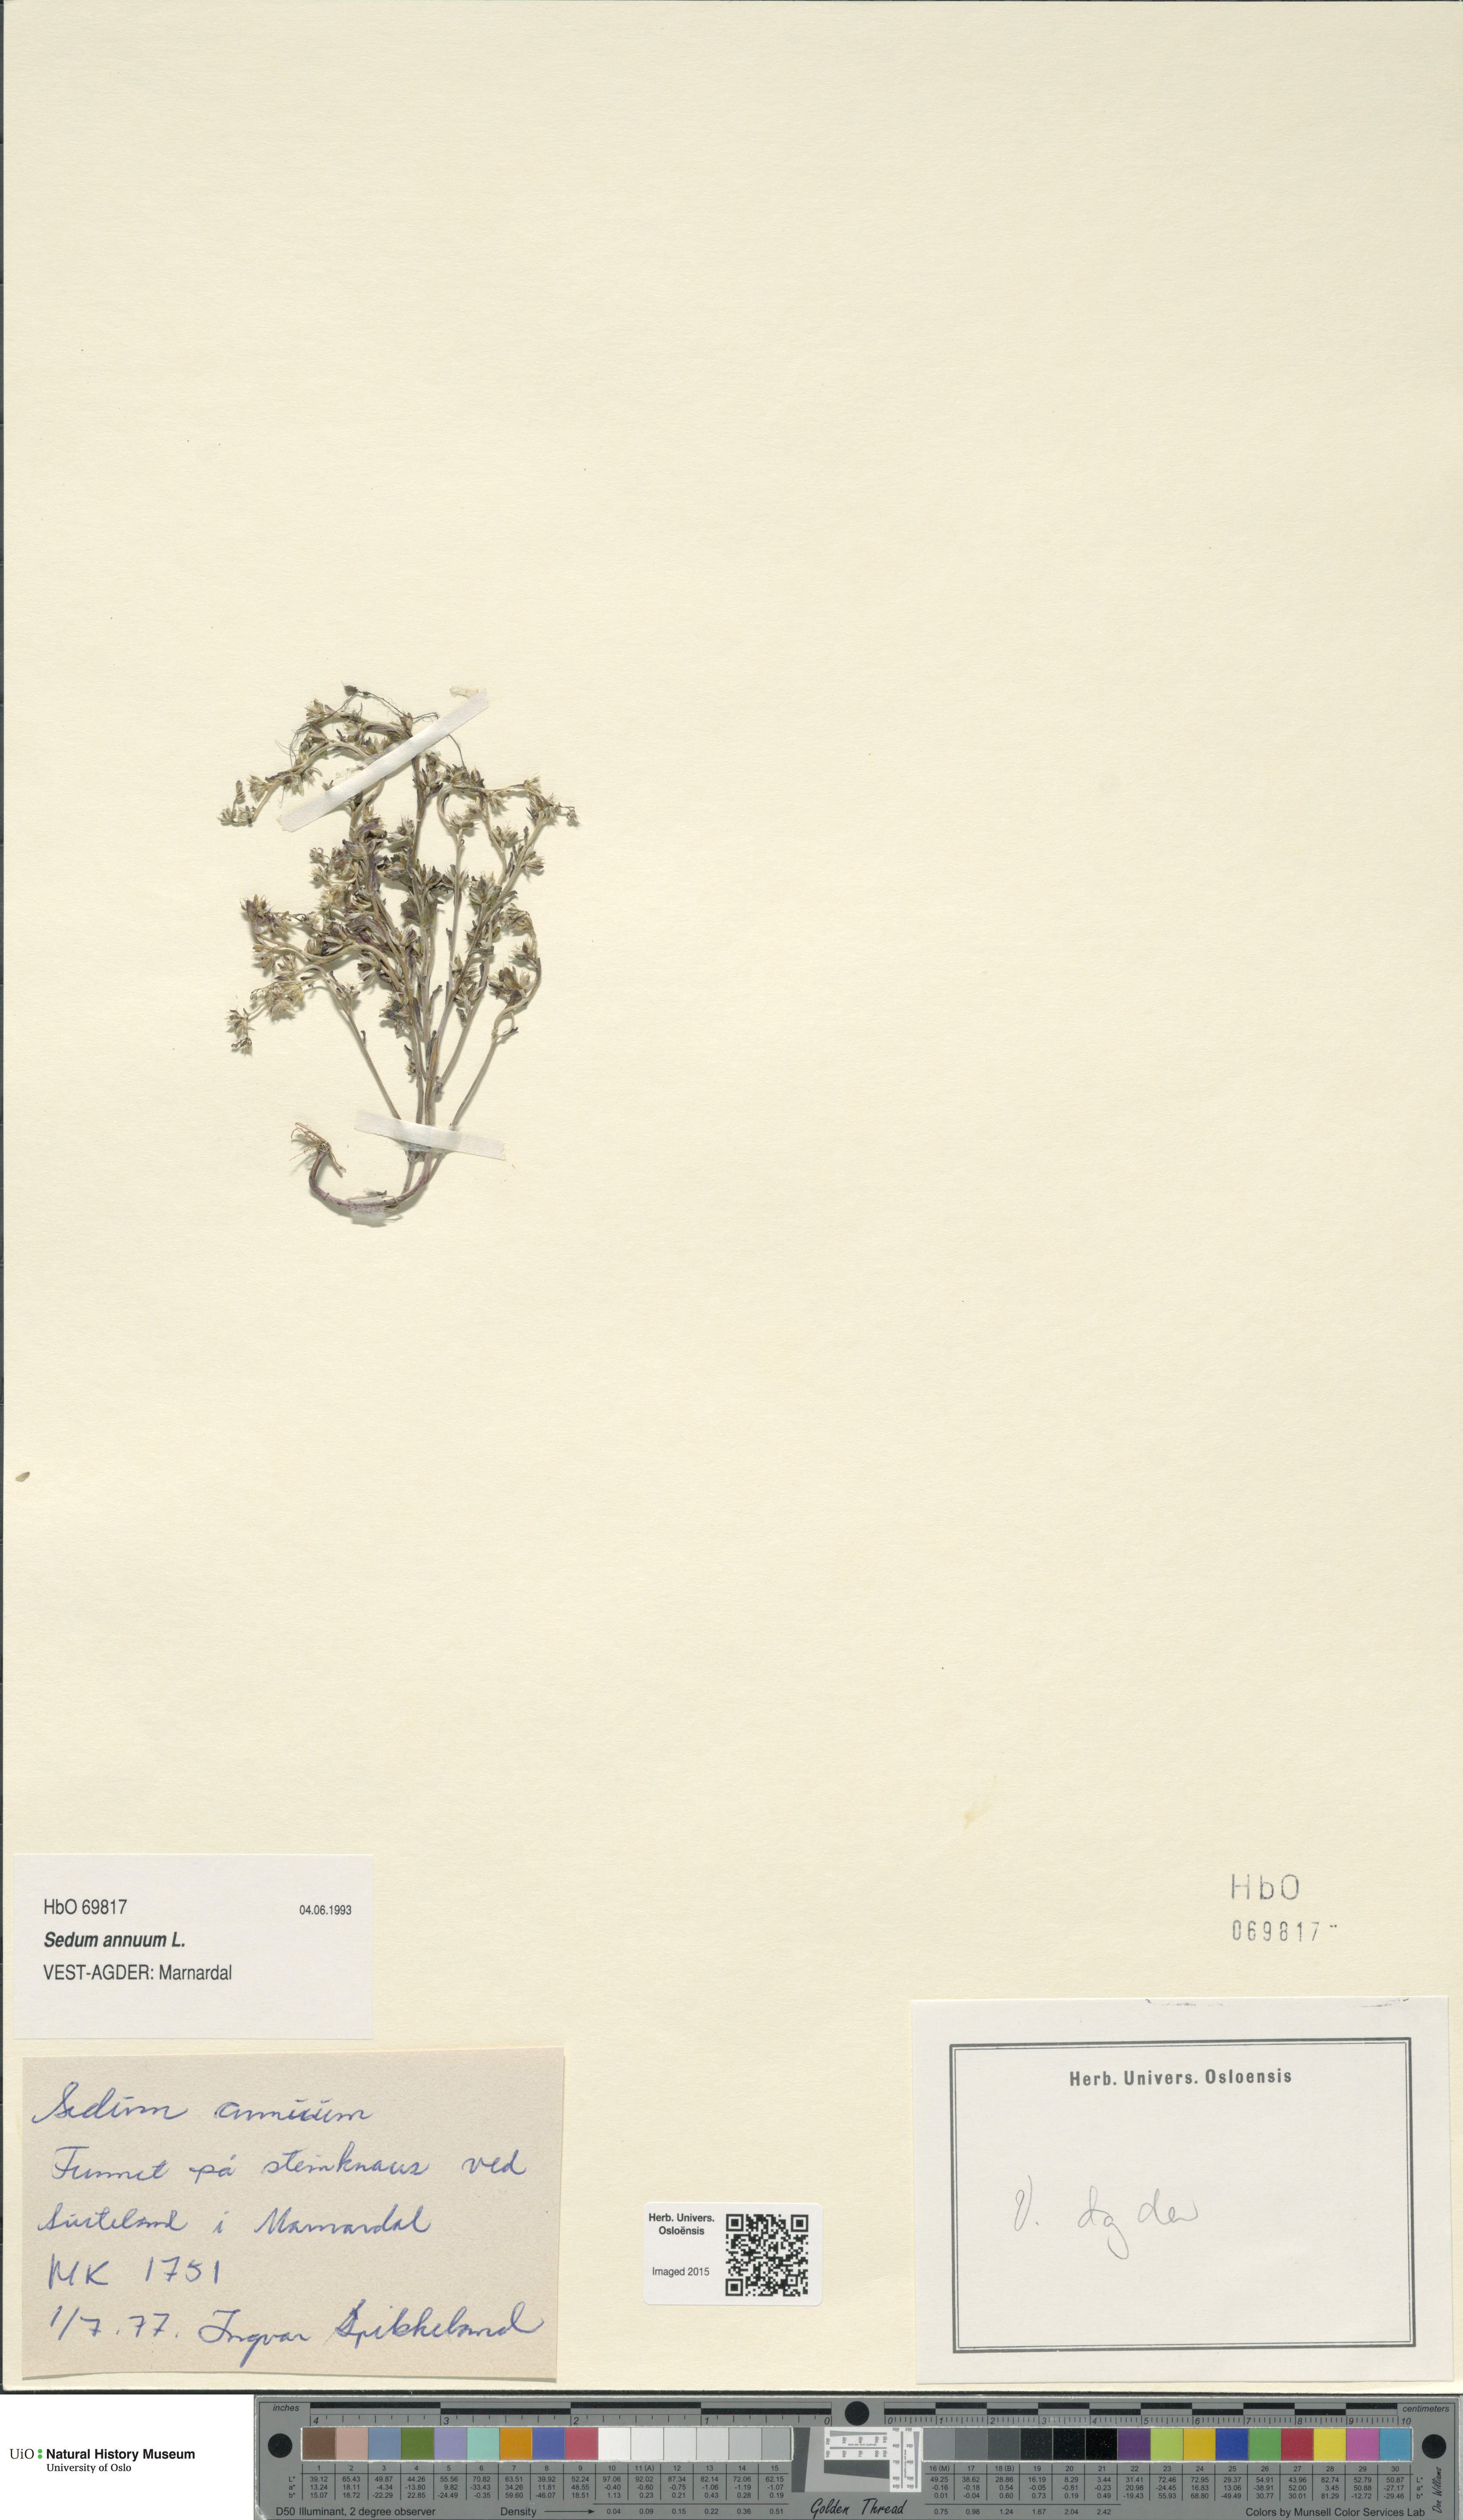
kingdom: Plantae
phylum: Tracheophyta
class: Magnoliopsida
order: Saxifragales
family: Crassulaceae
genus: Sedum
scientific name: Sedum annuum
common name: Annual stonecrop
